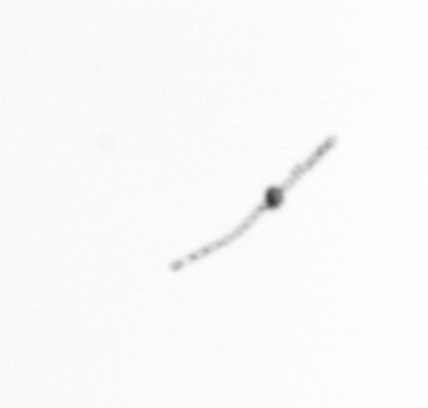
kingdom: Chromista
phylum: Ochrophyta
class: Bacillariophyceae
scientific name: Bacillariophyceae
